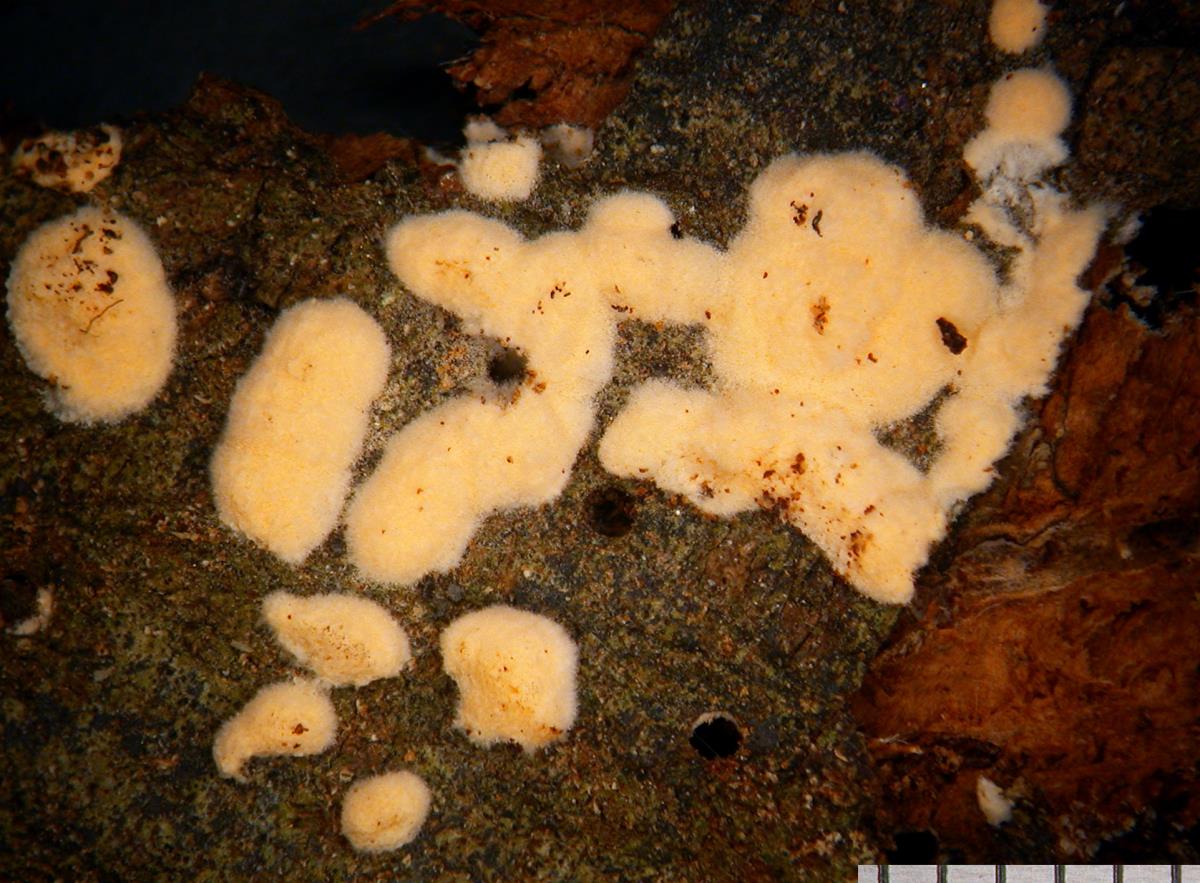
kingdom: Fungi
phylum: Ascomycota
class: Sordariomycetes
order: Hypocreales
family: Myrotheciomycetaceae
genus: Trichothecium
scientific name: Trichothecium roseum
